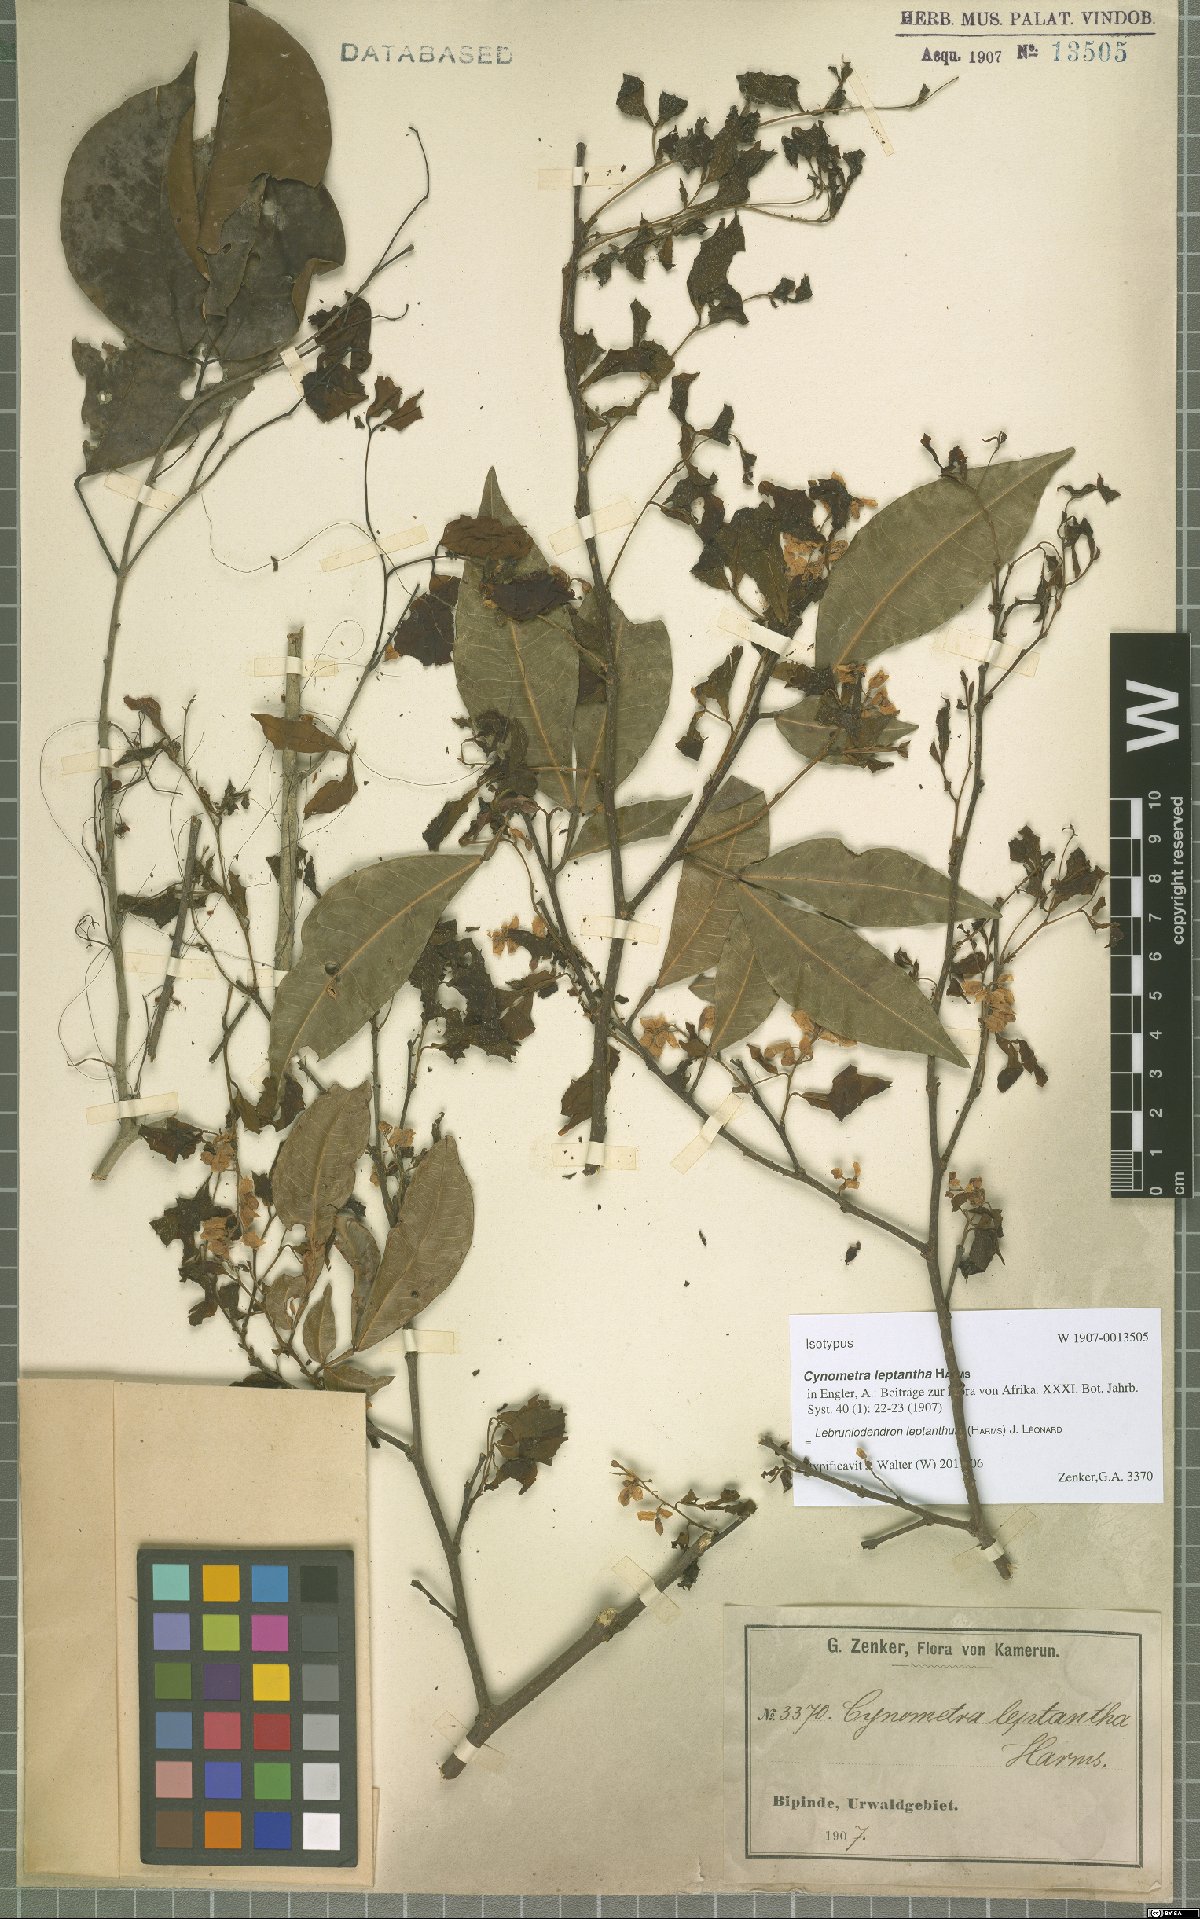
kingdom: Plantae
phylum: Tracheophyta
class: Magnoliopsida
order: Fabales
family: Fabaceae
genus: Lebruniodendron
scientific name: Lebruniodendron leptanthum
